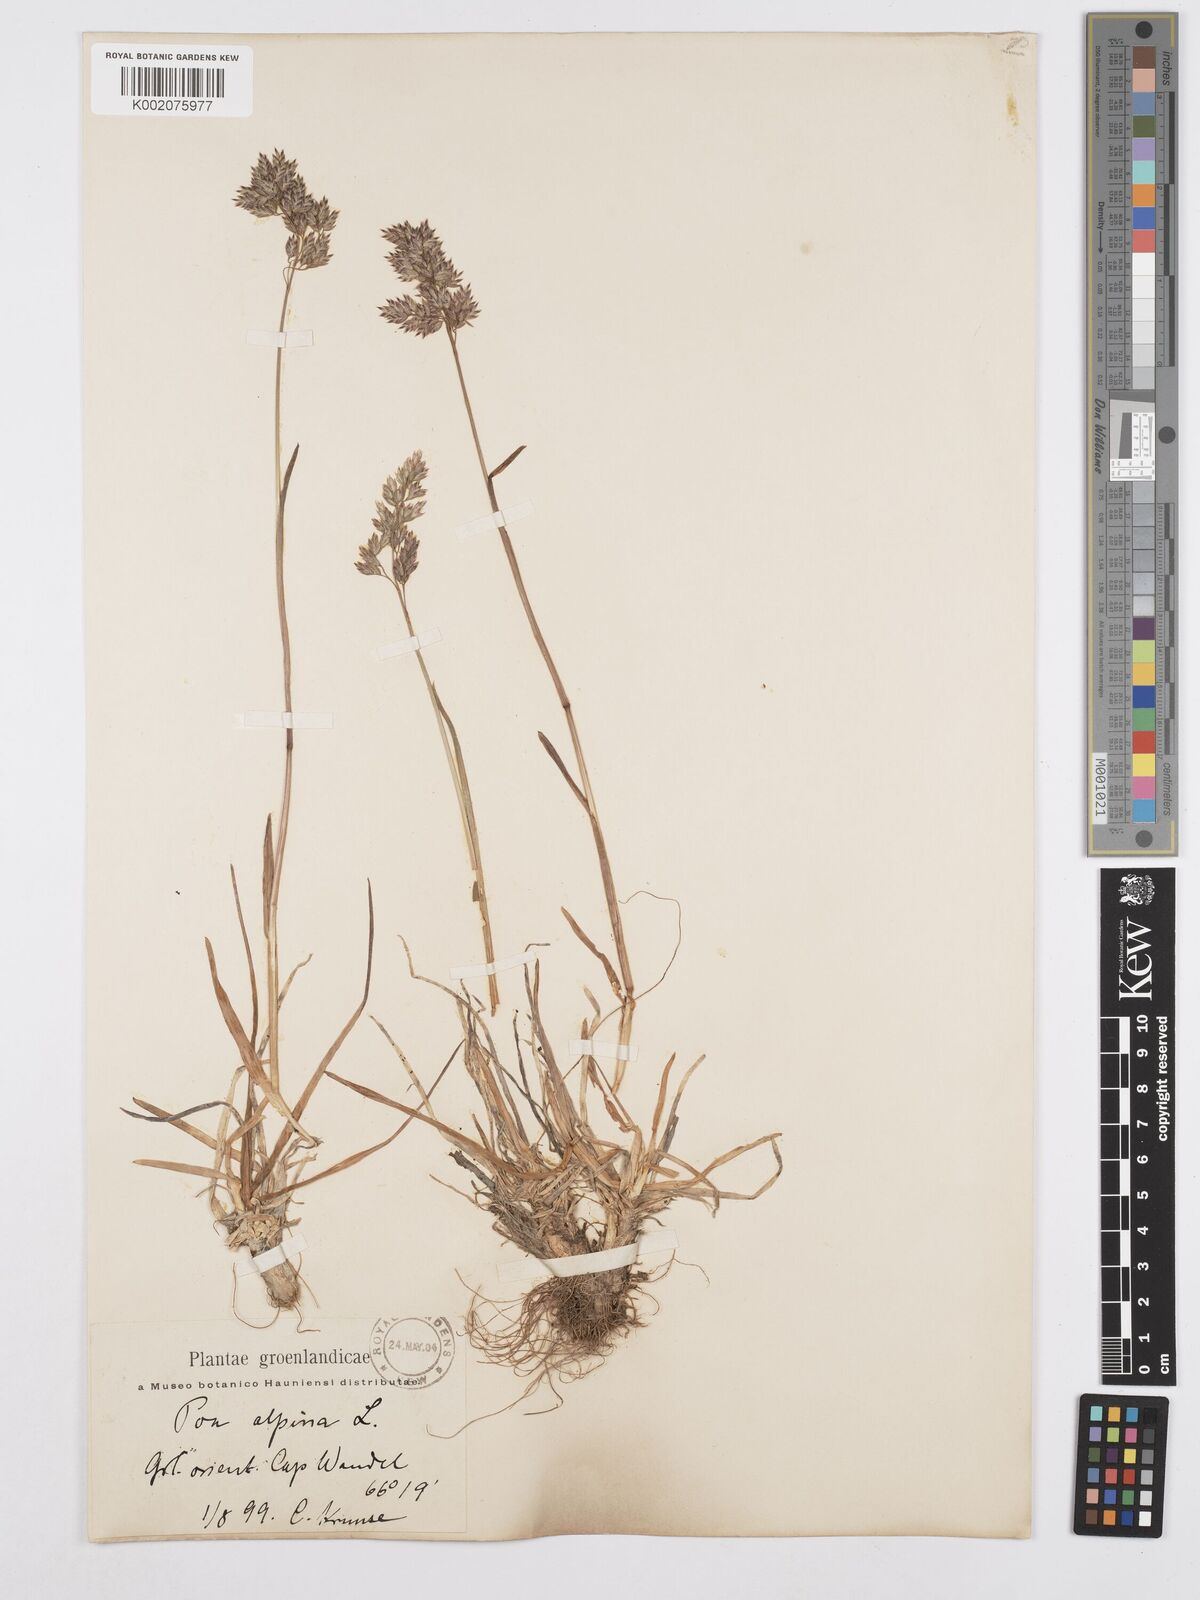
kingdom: Plantae
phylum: Tracheophyta
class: Liliopsida
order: Poales
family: Poaceae
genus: Poa
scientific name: Poa alpina
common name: Alpine bluegrass
